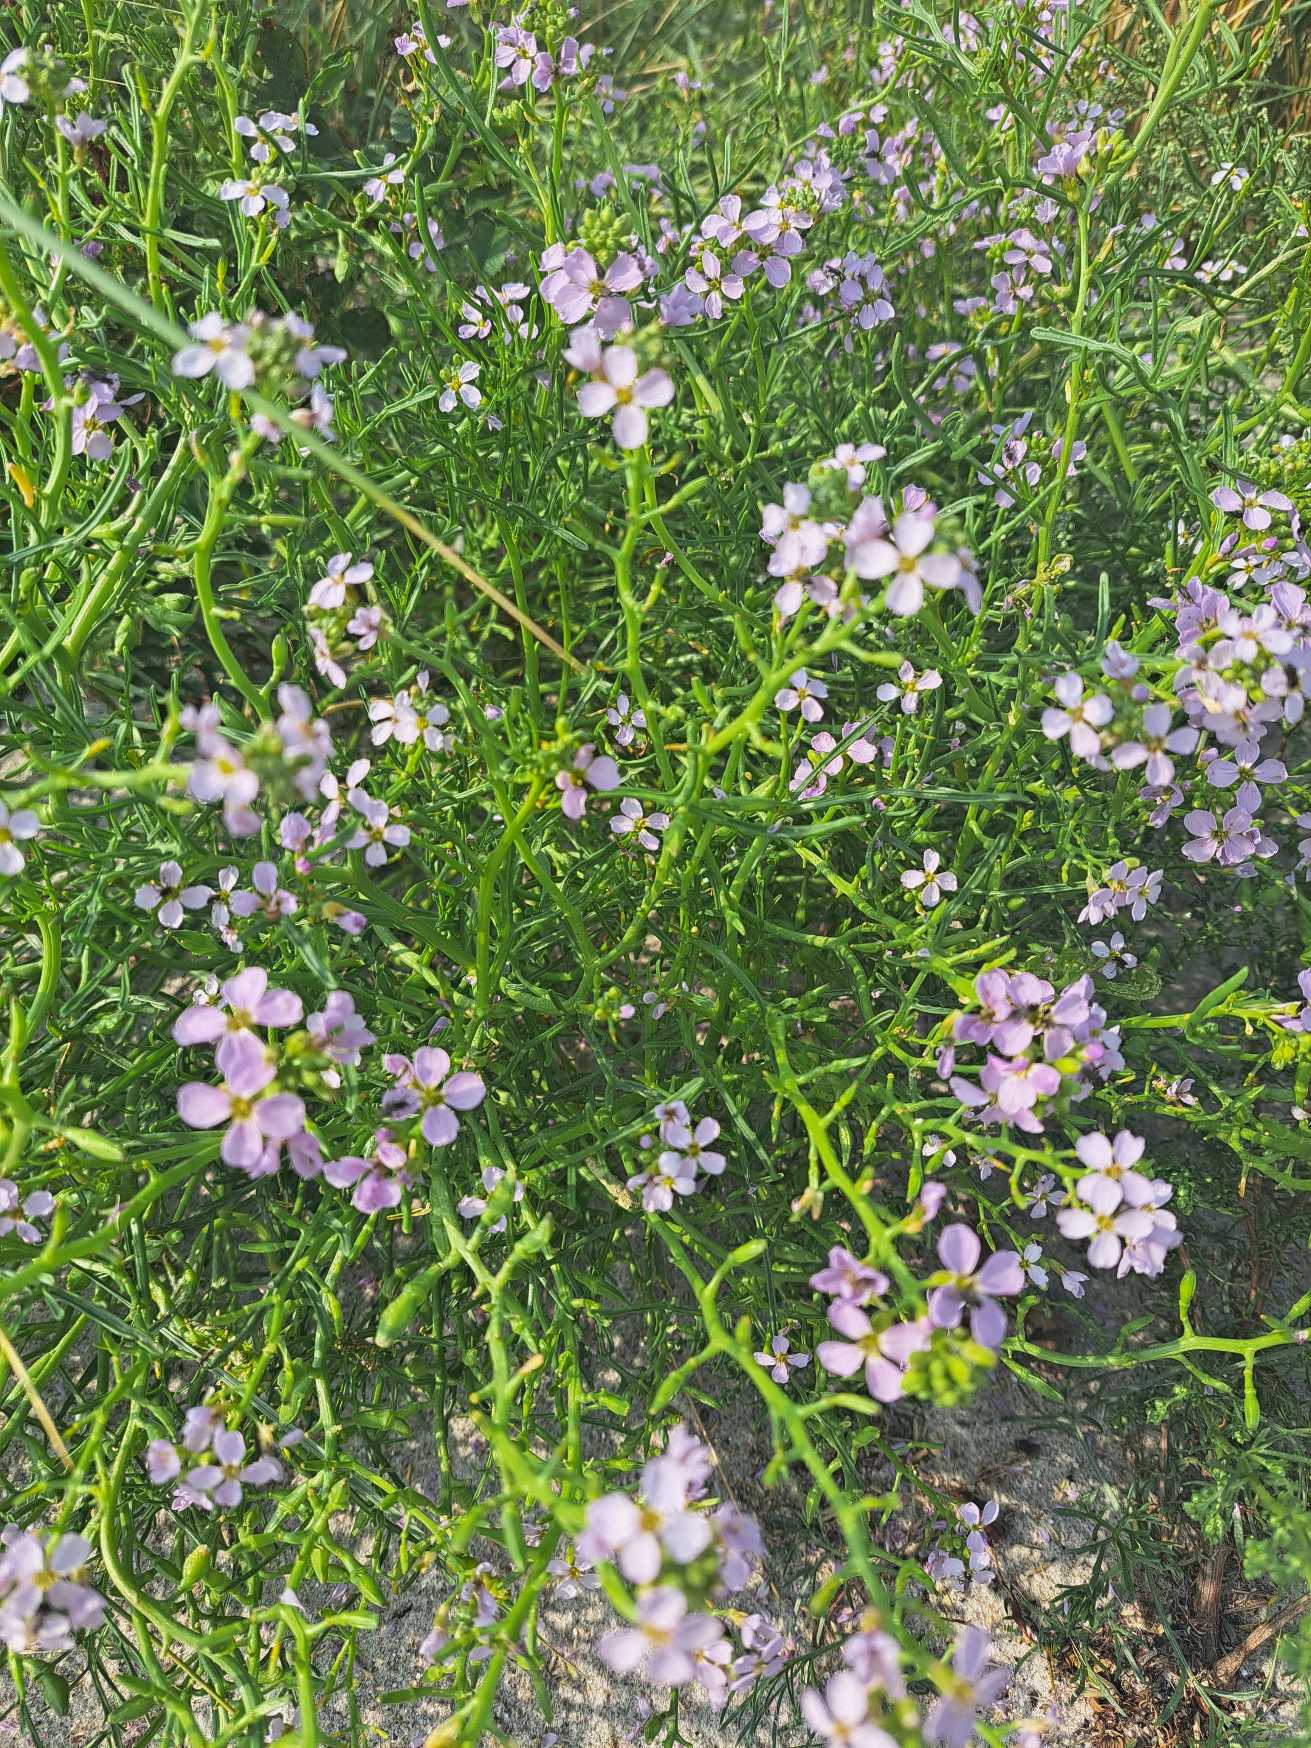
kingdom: Plantae
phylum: Tracheophyta
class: Magnoliopsida
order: Brassicales
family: Brassicaceae
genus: Cakile
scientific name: Cakile maritima
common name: Strandsennep
